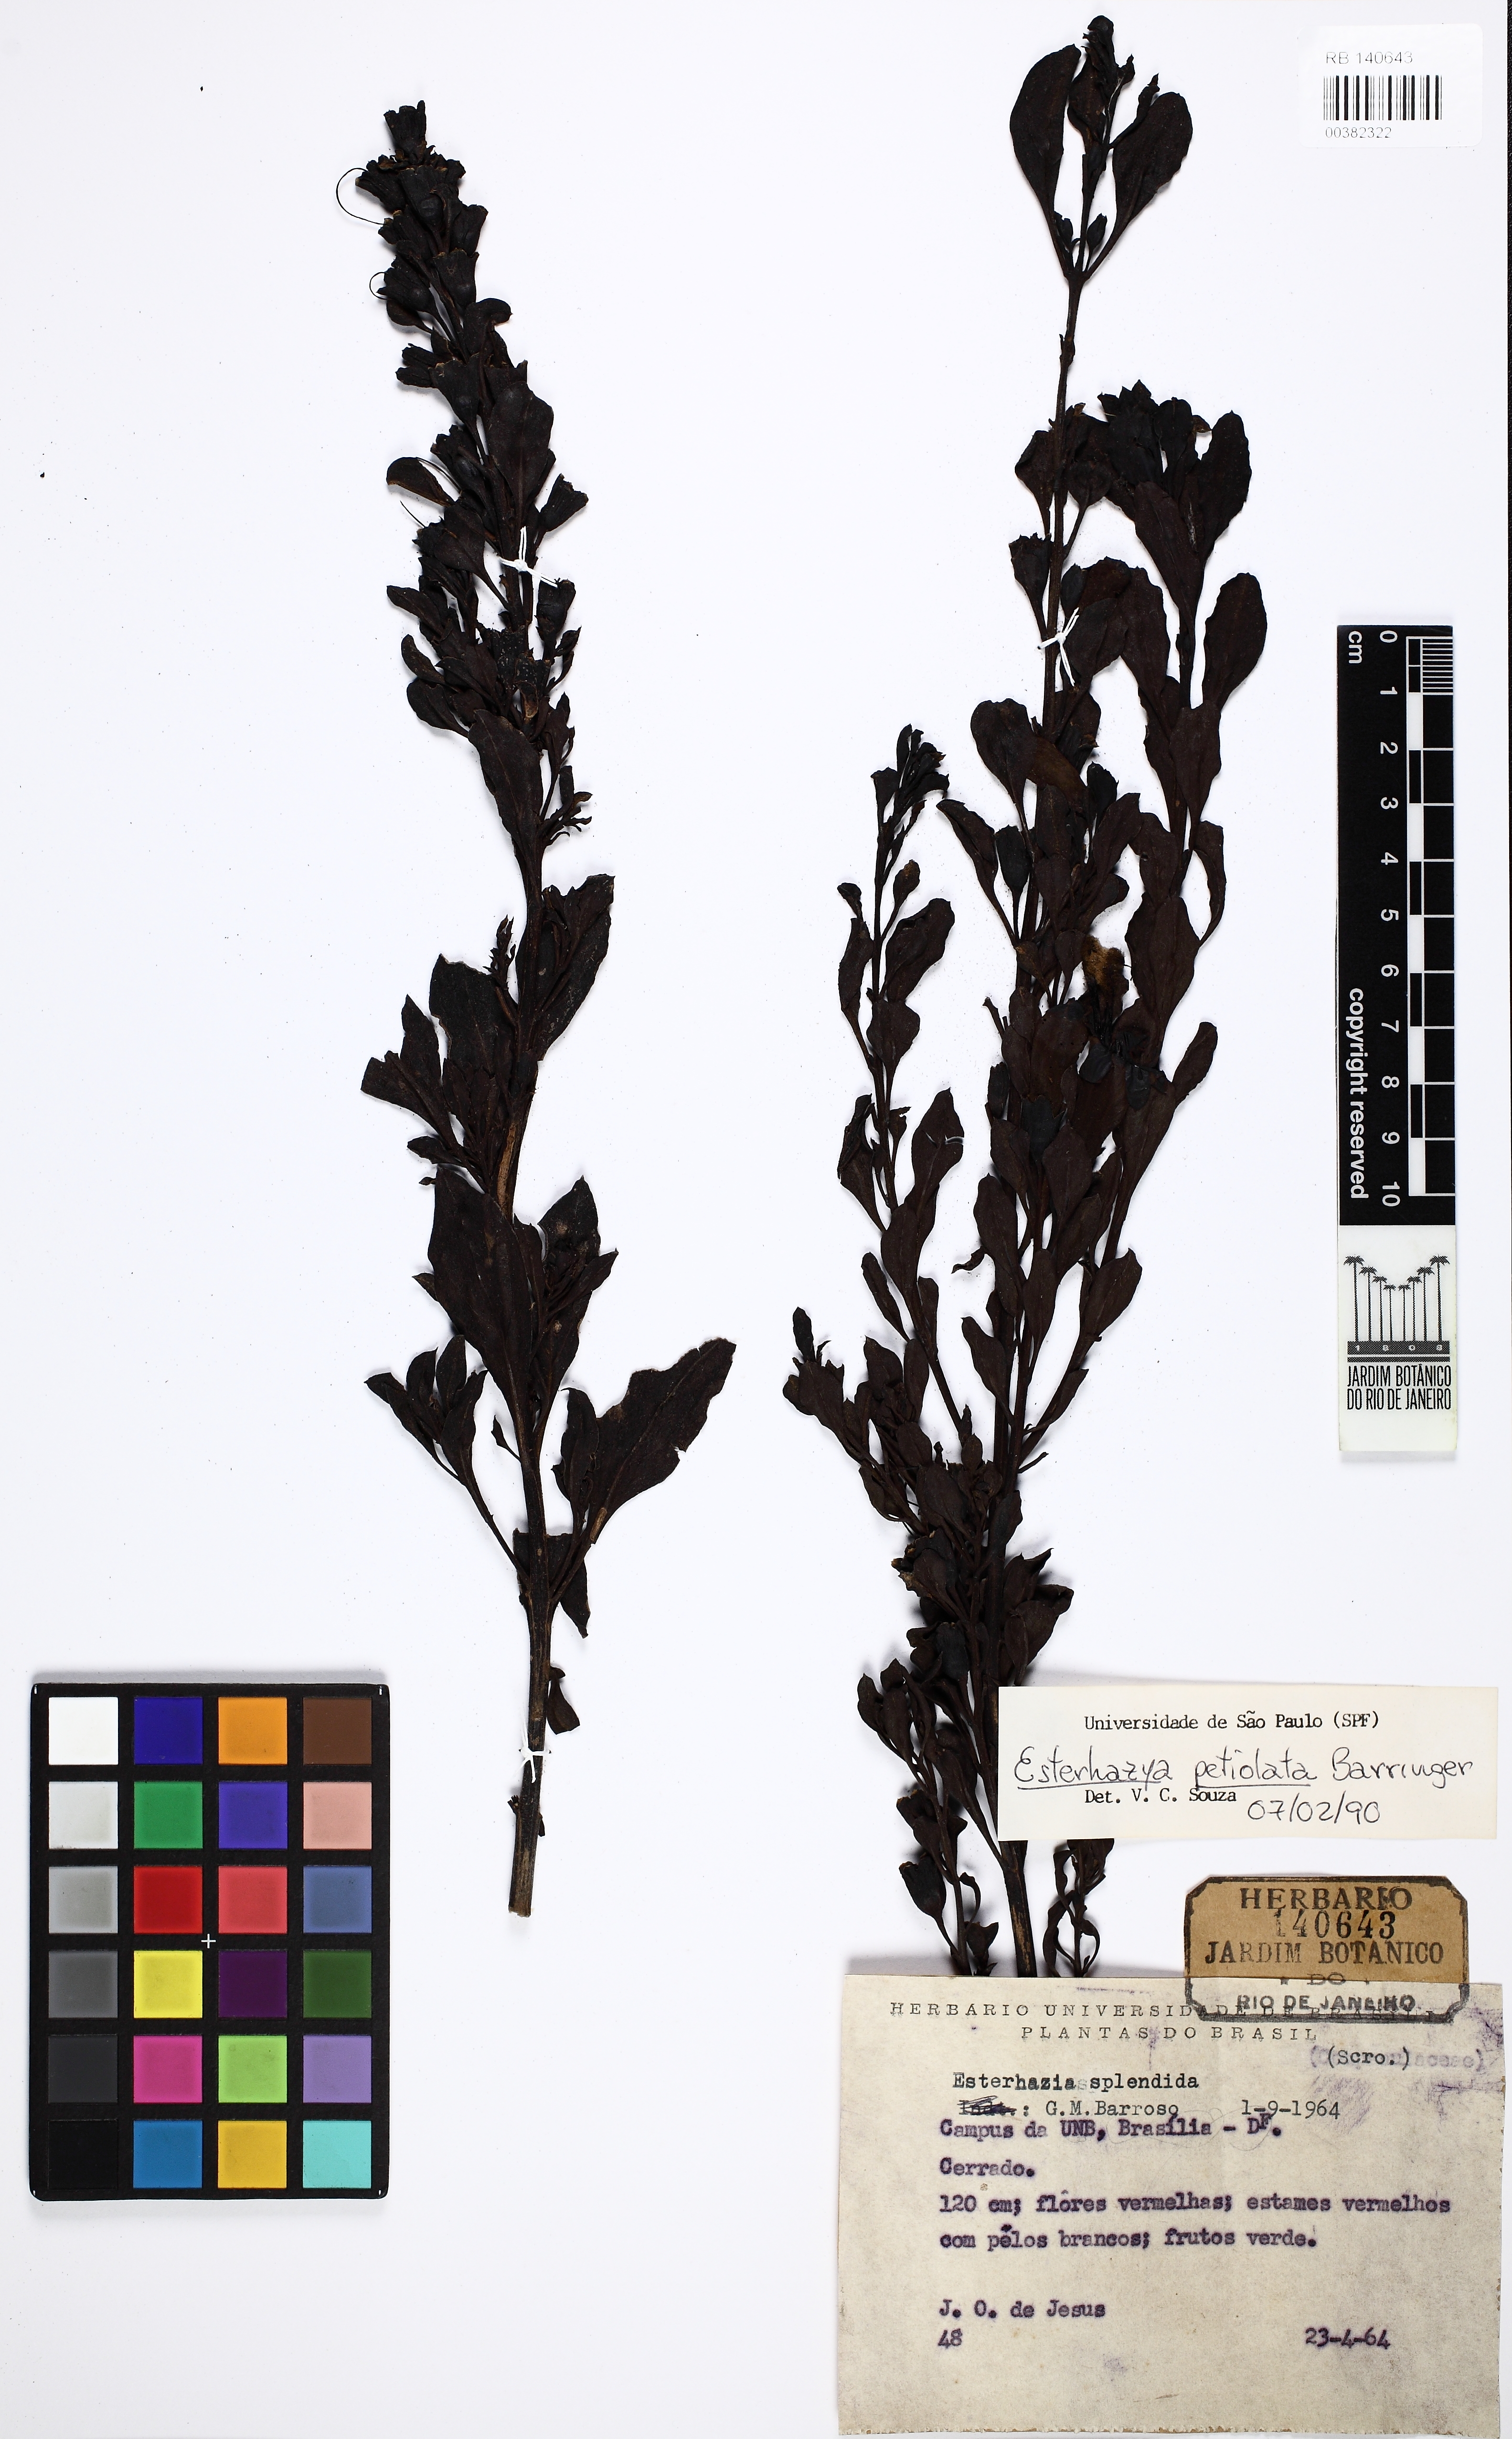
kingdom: Plantae
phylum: Tracheophyta
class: Magnoliopsida
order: Lamiales
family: Orobanchaceae
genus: Esterhazya
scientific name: Esterhazya splendida
